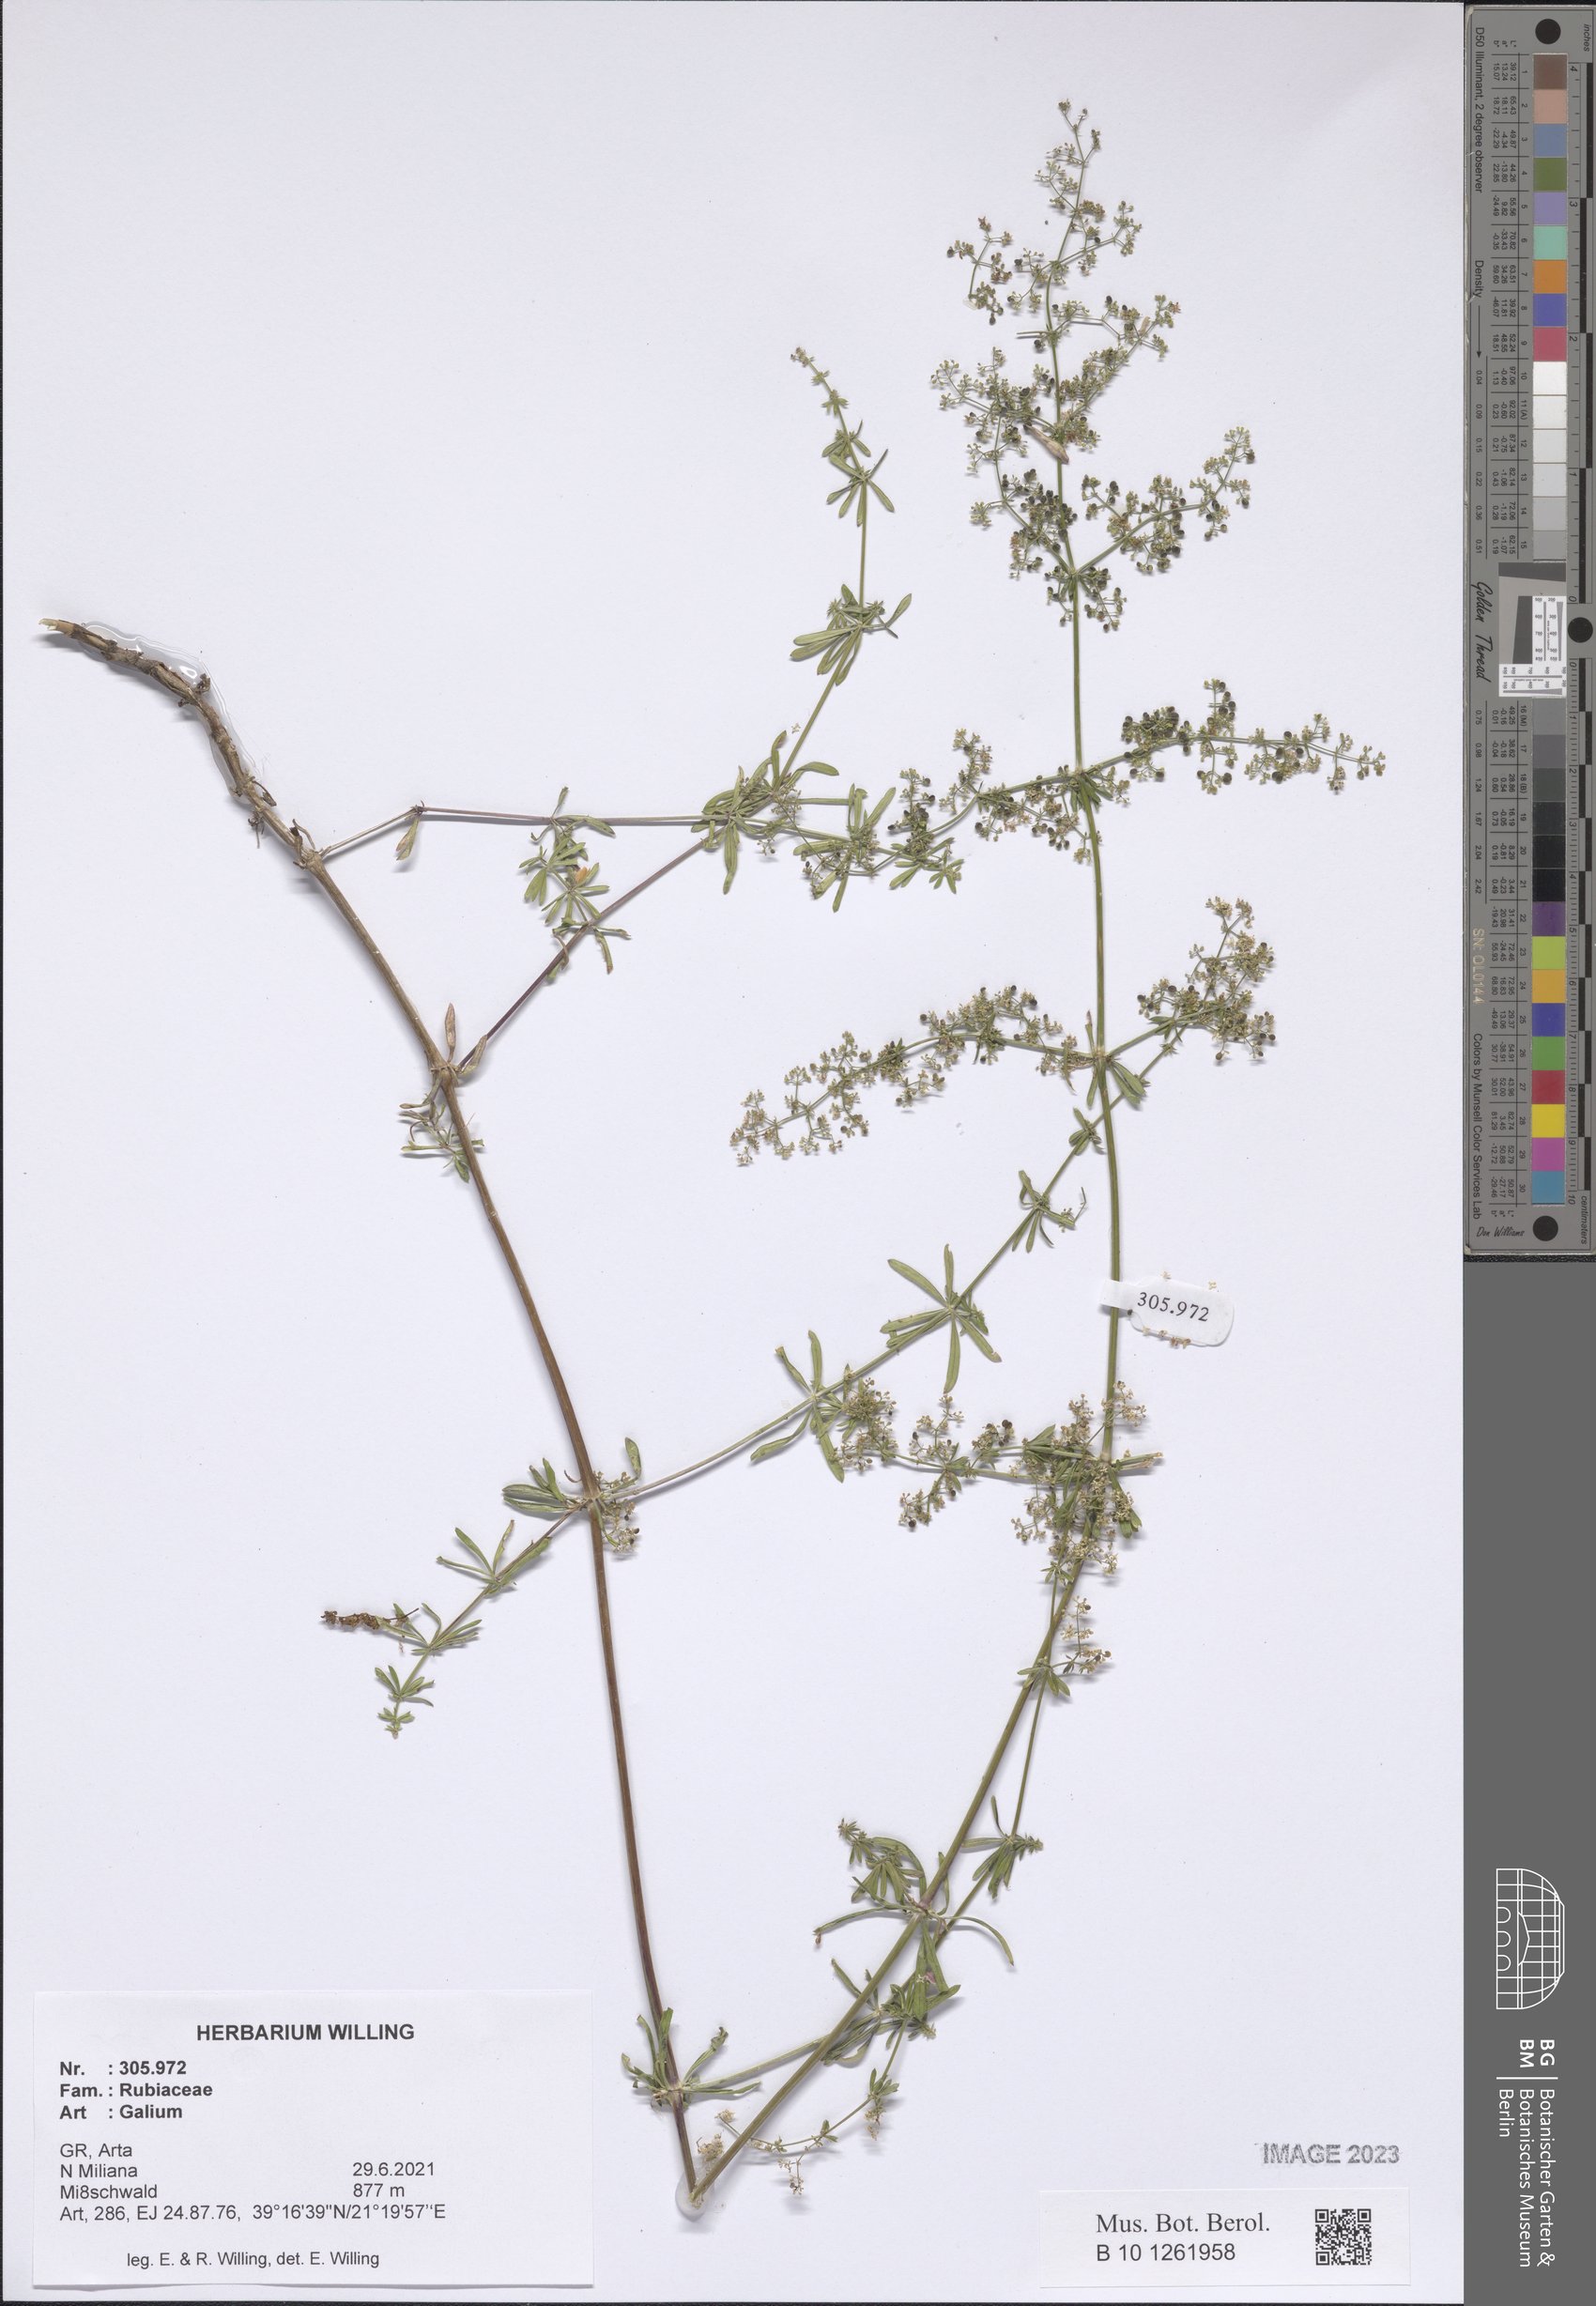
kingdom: Plantae
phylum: Tracheophyta
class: Magnoliopsida
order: Gentianales
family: Rubiaceae
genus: Galium
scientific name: Galium
